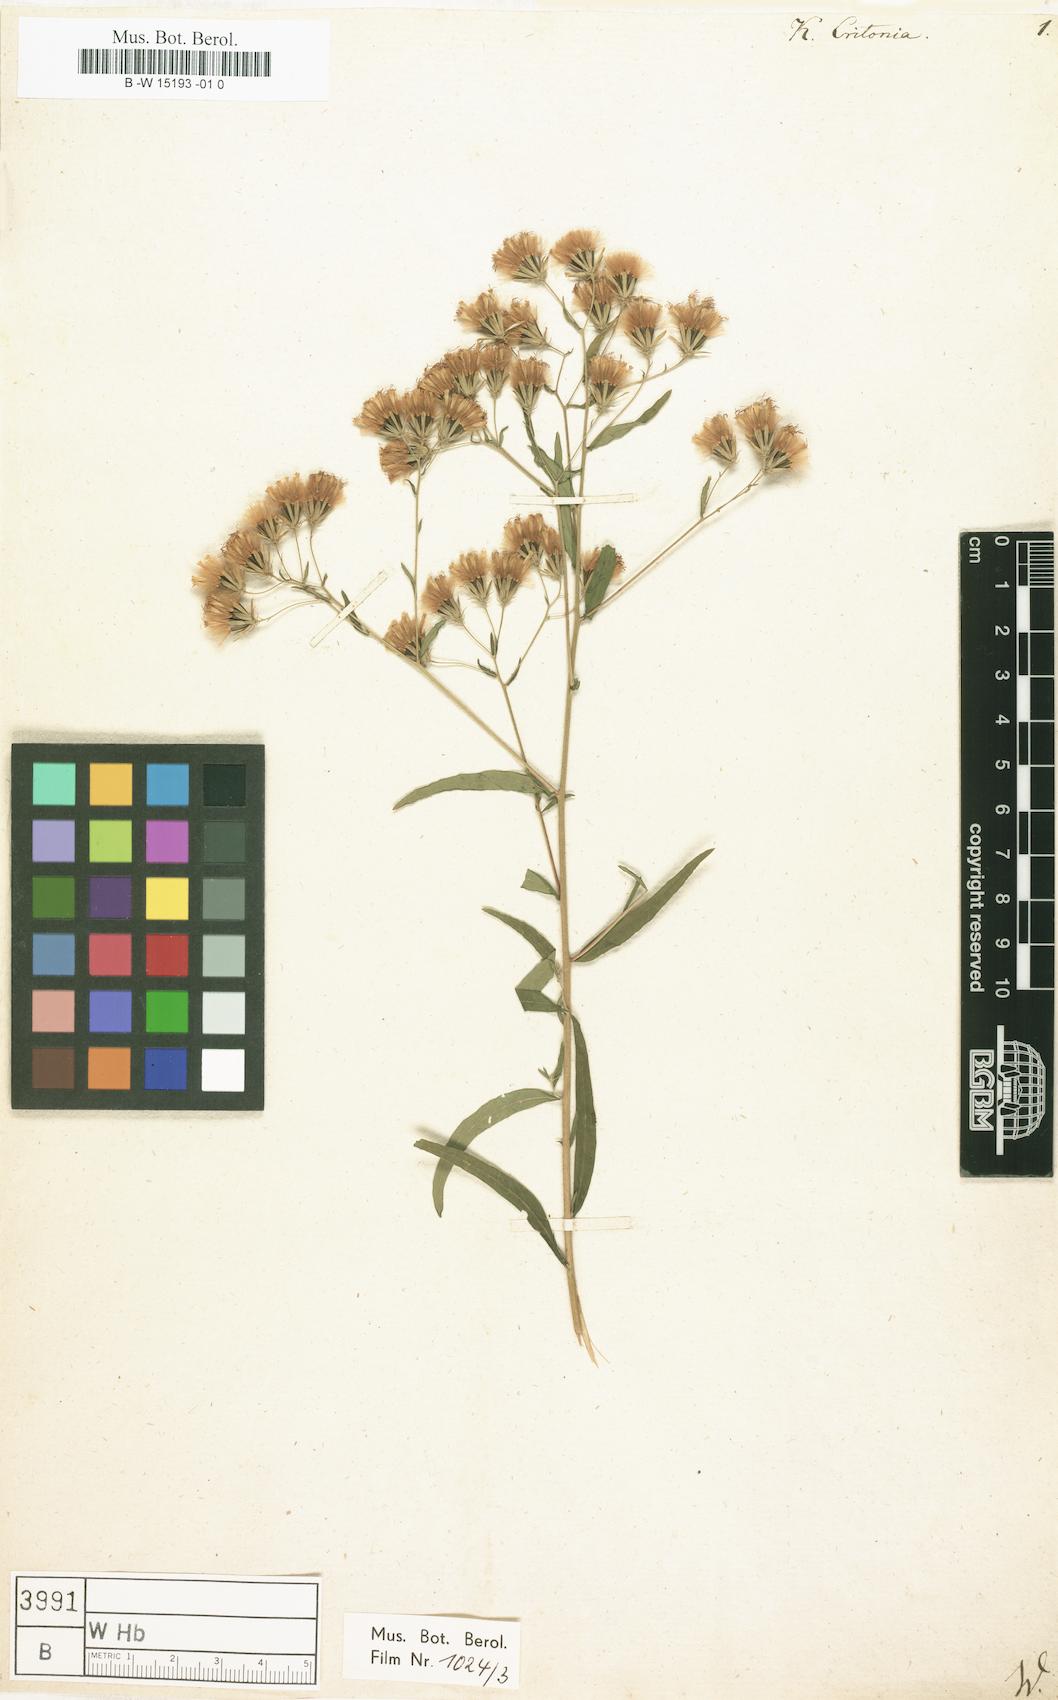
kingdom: Plantae
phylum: Tracheophyta
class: Magnoliopsida
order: Asterales
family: Asteraceae
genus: Brickellia
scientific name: Brickellia eupatorioides
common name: False boneset
